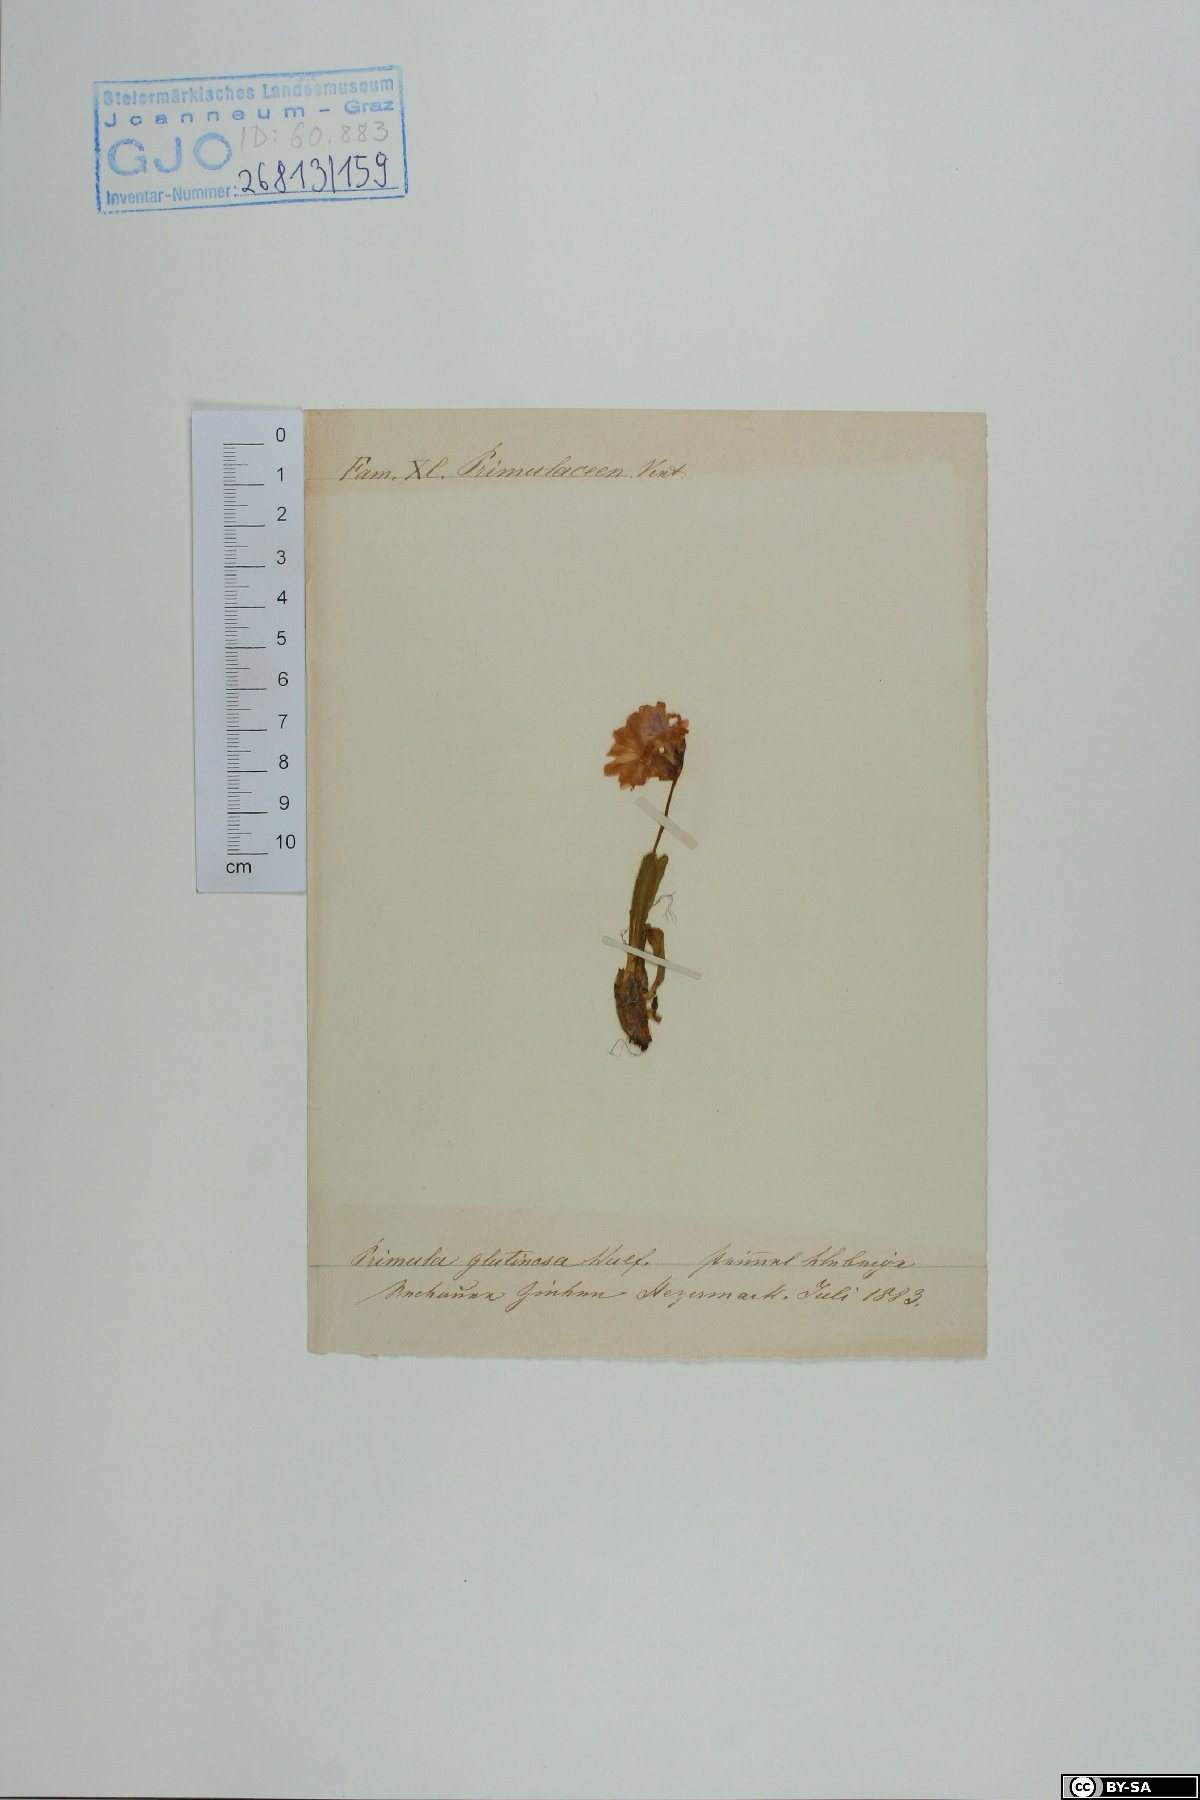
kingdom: Plantae
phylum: Tracheophyta
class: Magnoliopsida
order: Ericales
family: Primulaceae
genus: Primula
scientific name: Primula glutinosa
